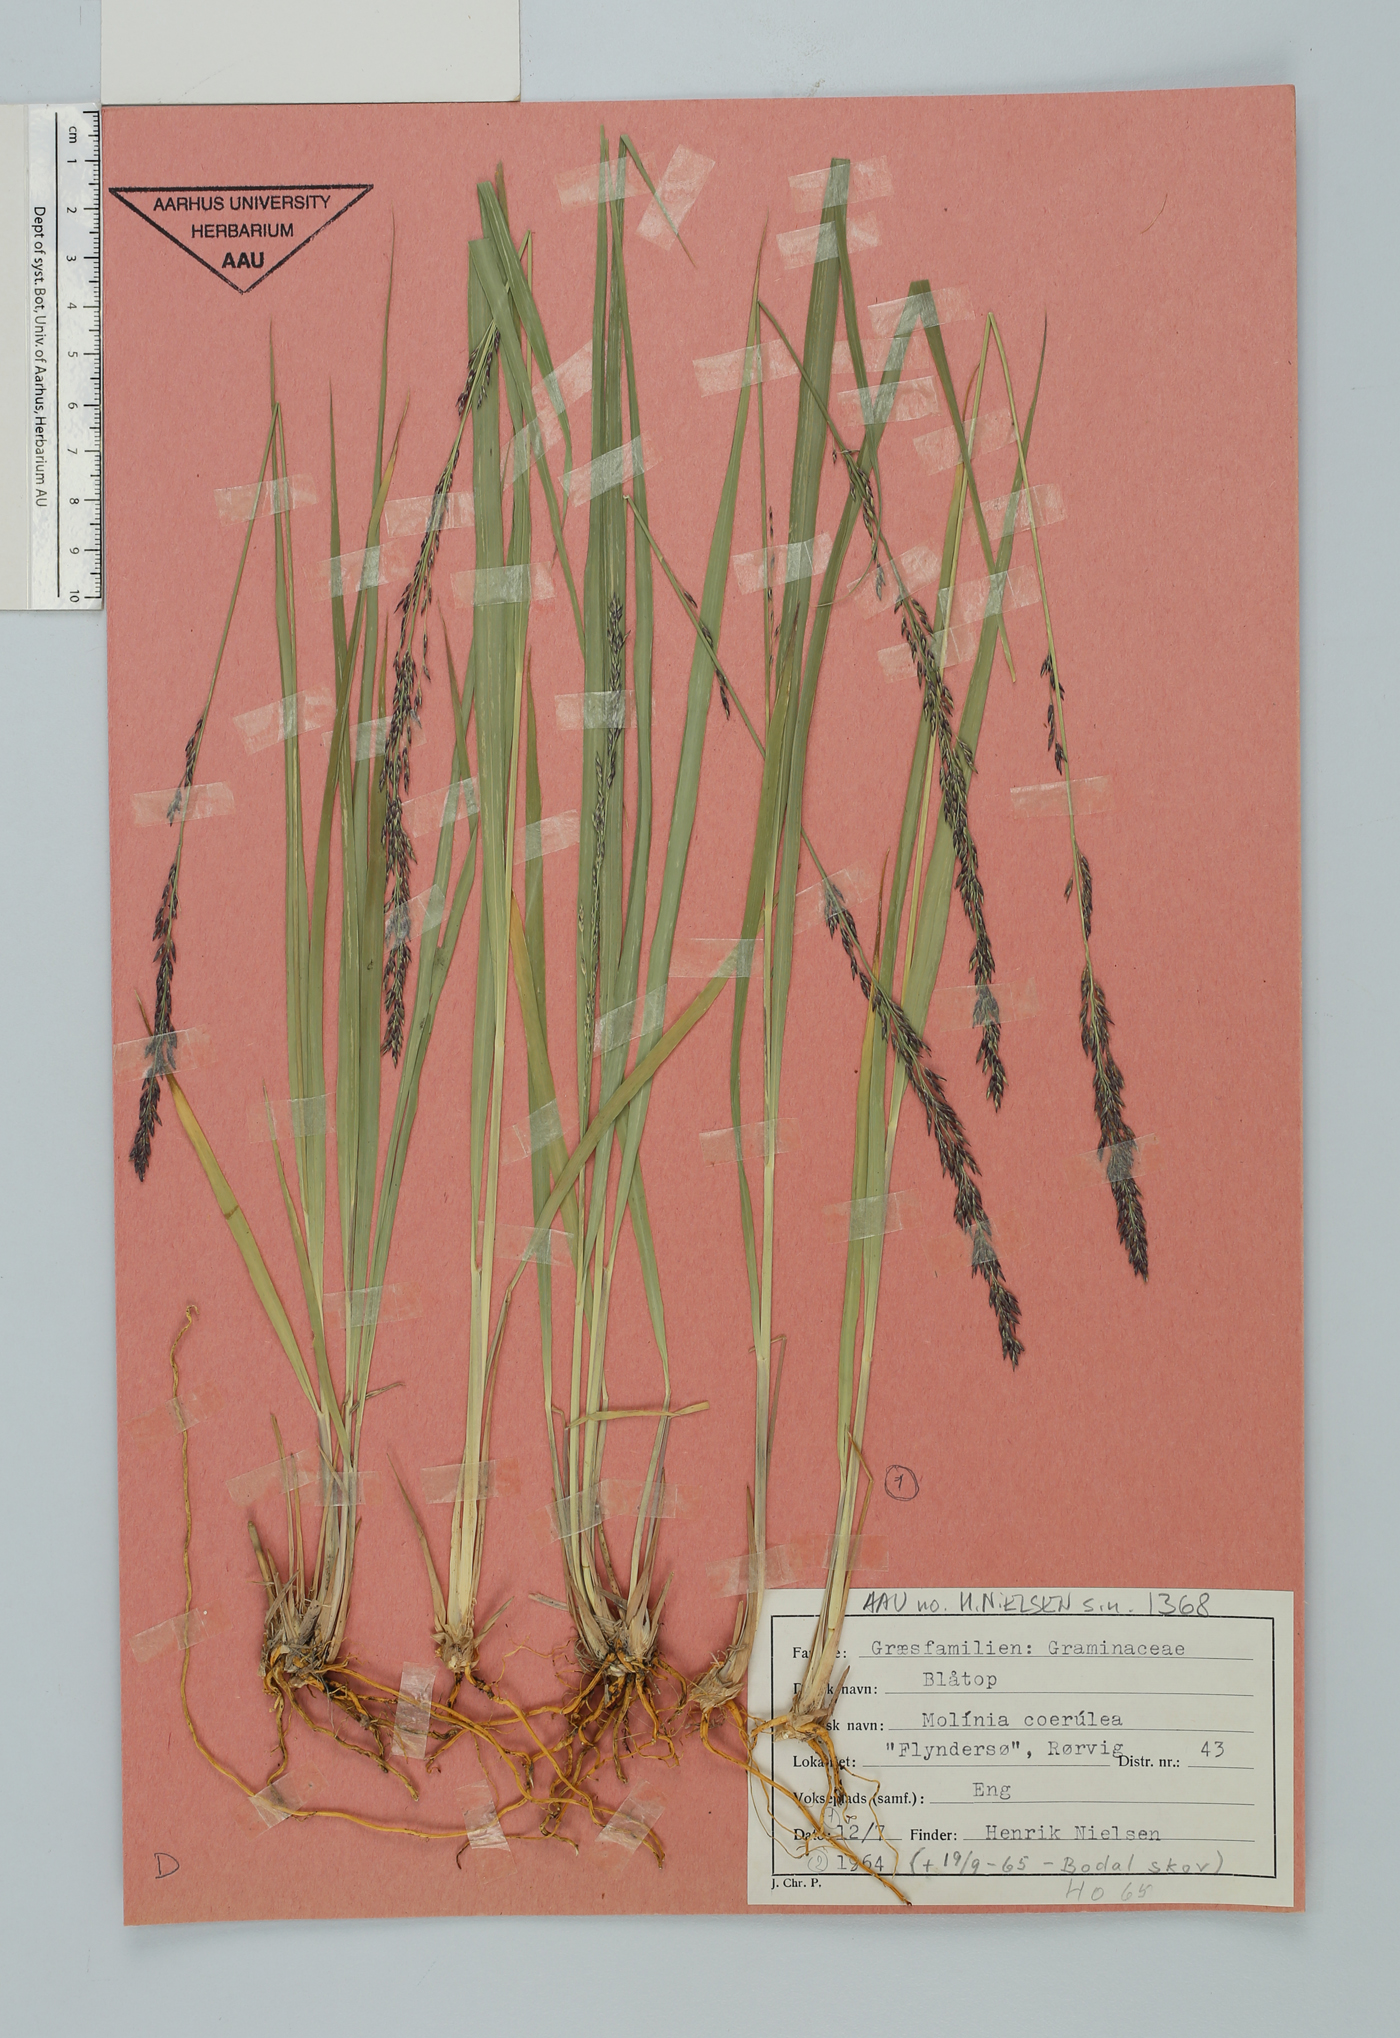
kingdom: Plantae
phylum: Tracheophyta
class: Liliopsida
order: Poales
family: Poaceae
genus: Molinia
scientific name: Molinia caerulea
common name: Purple moor-grass
